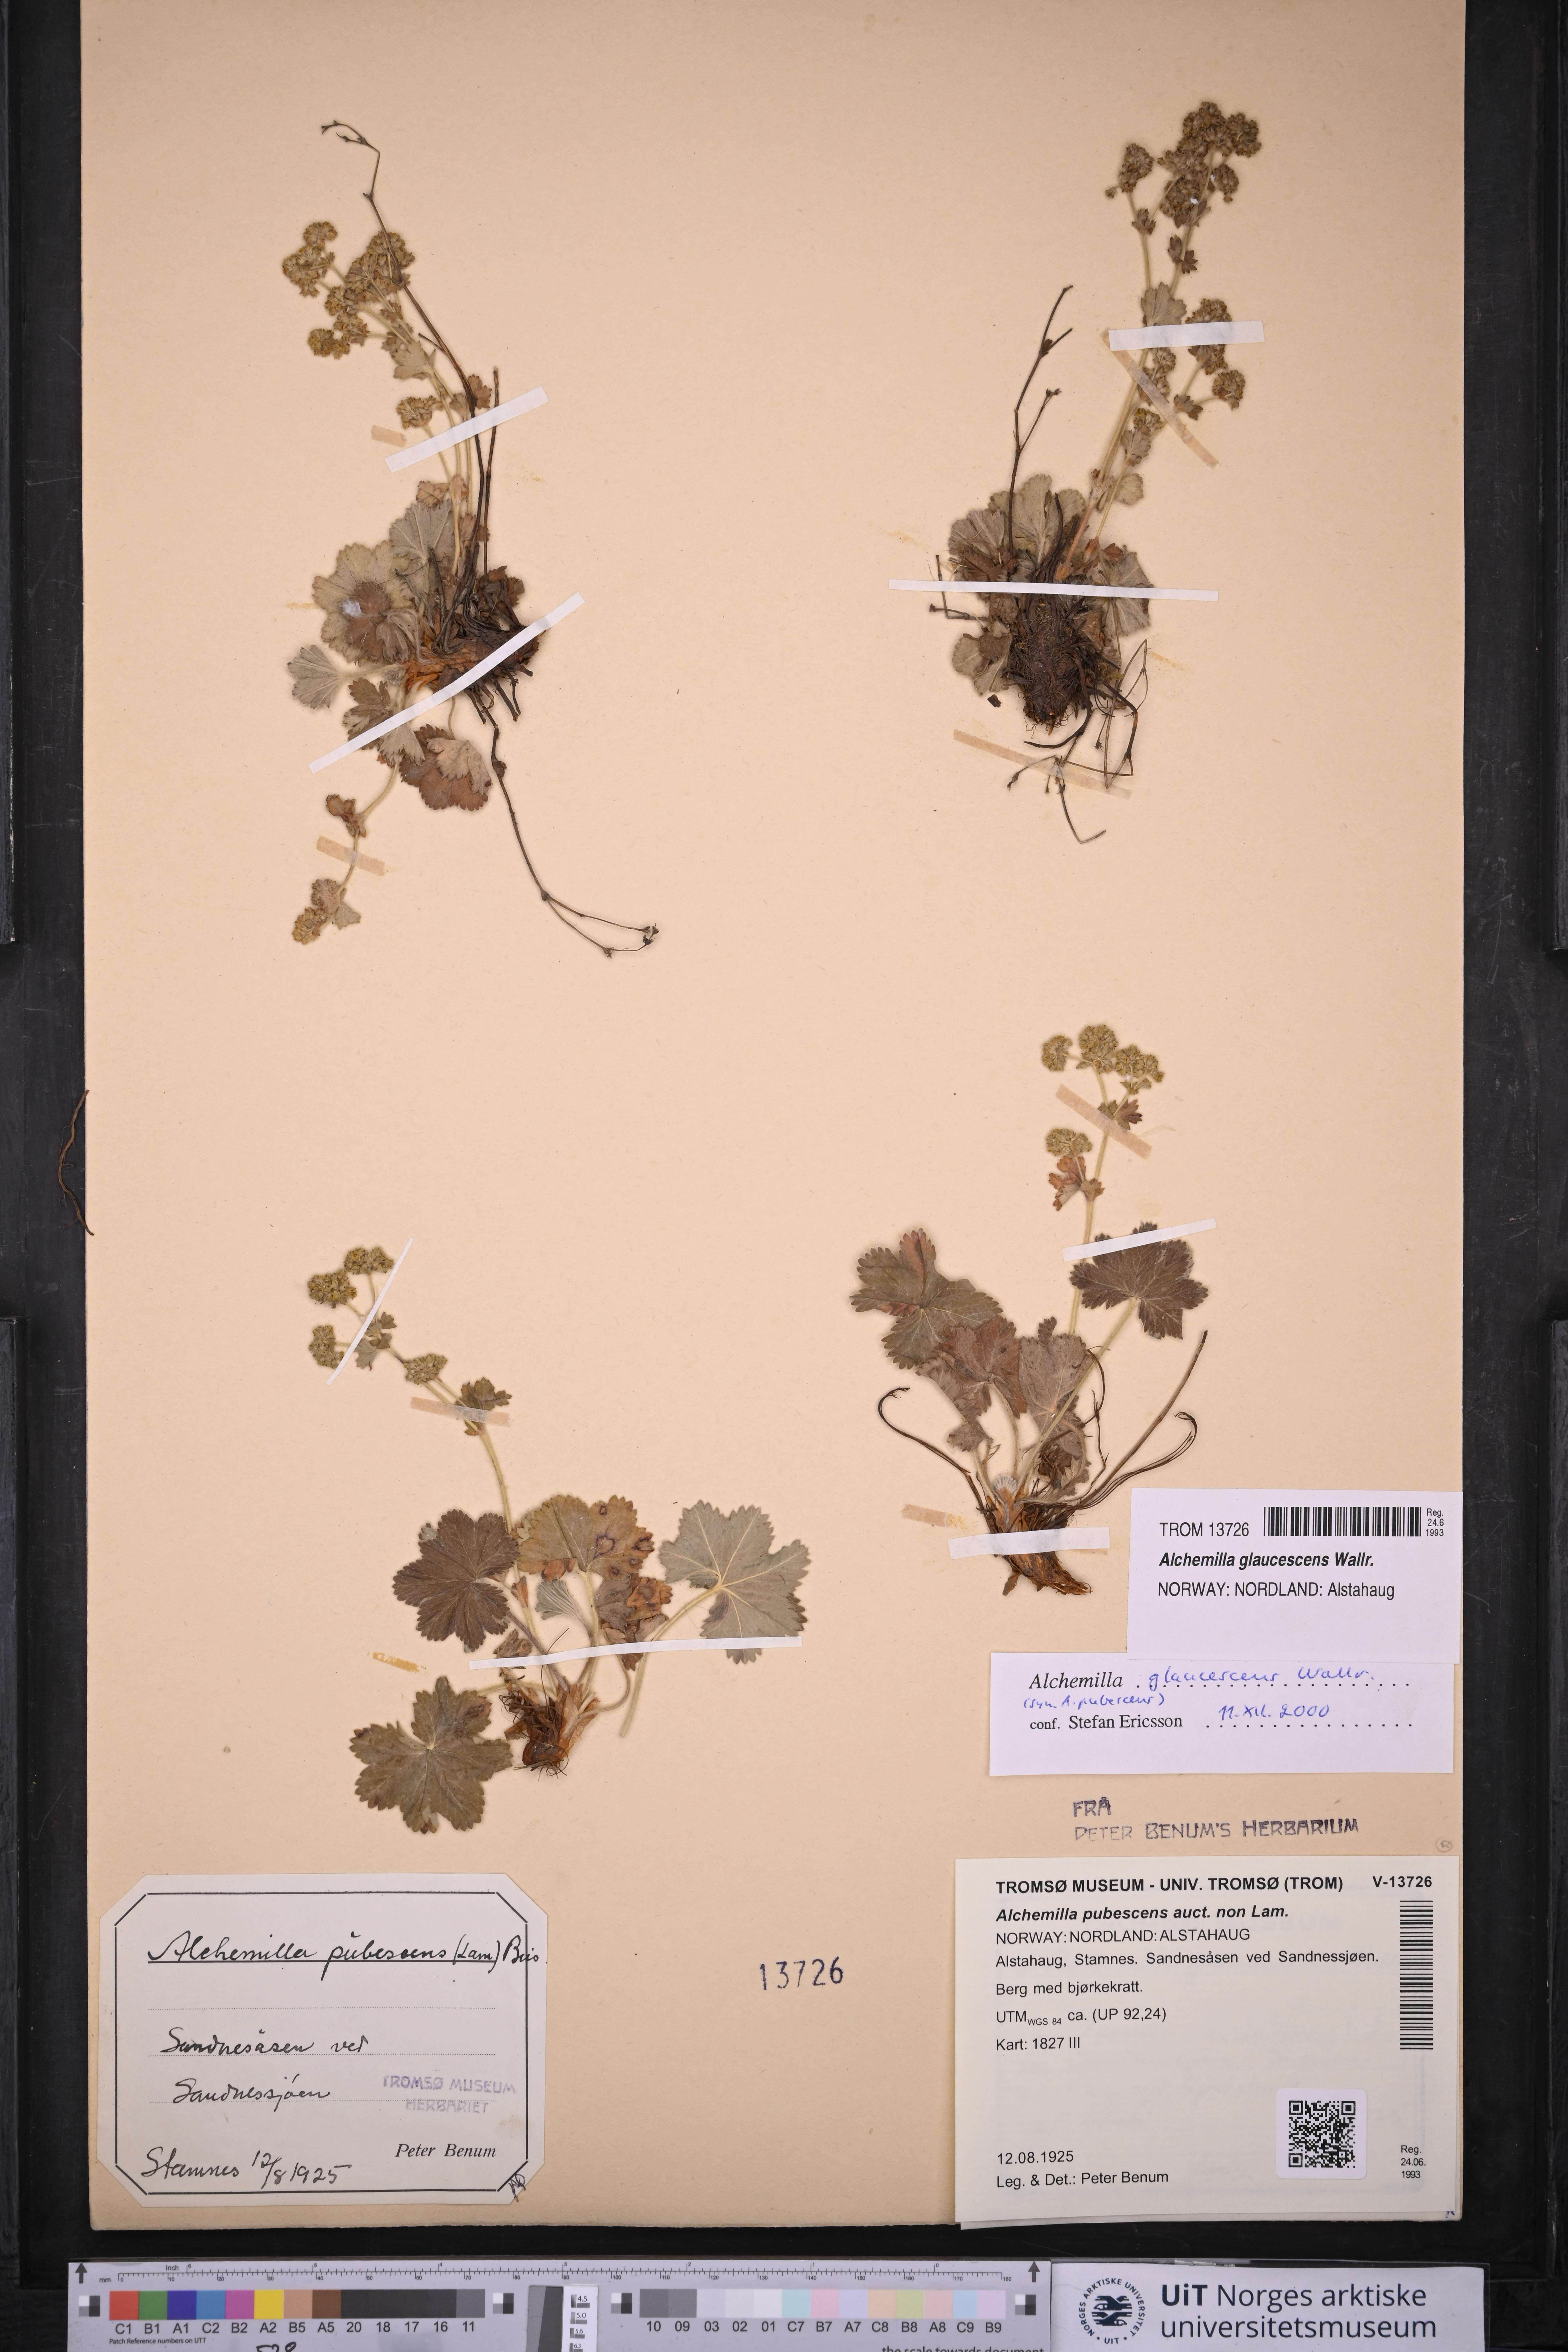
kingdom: Plantae
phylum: Tracheophyta
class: Magnoliopsida
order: Rosales
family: Rosaceae
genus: Alchemilla
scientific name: Alchemilla glaucescens
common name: Silky lady's mantle
